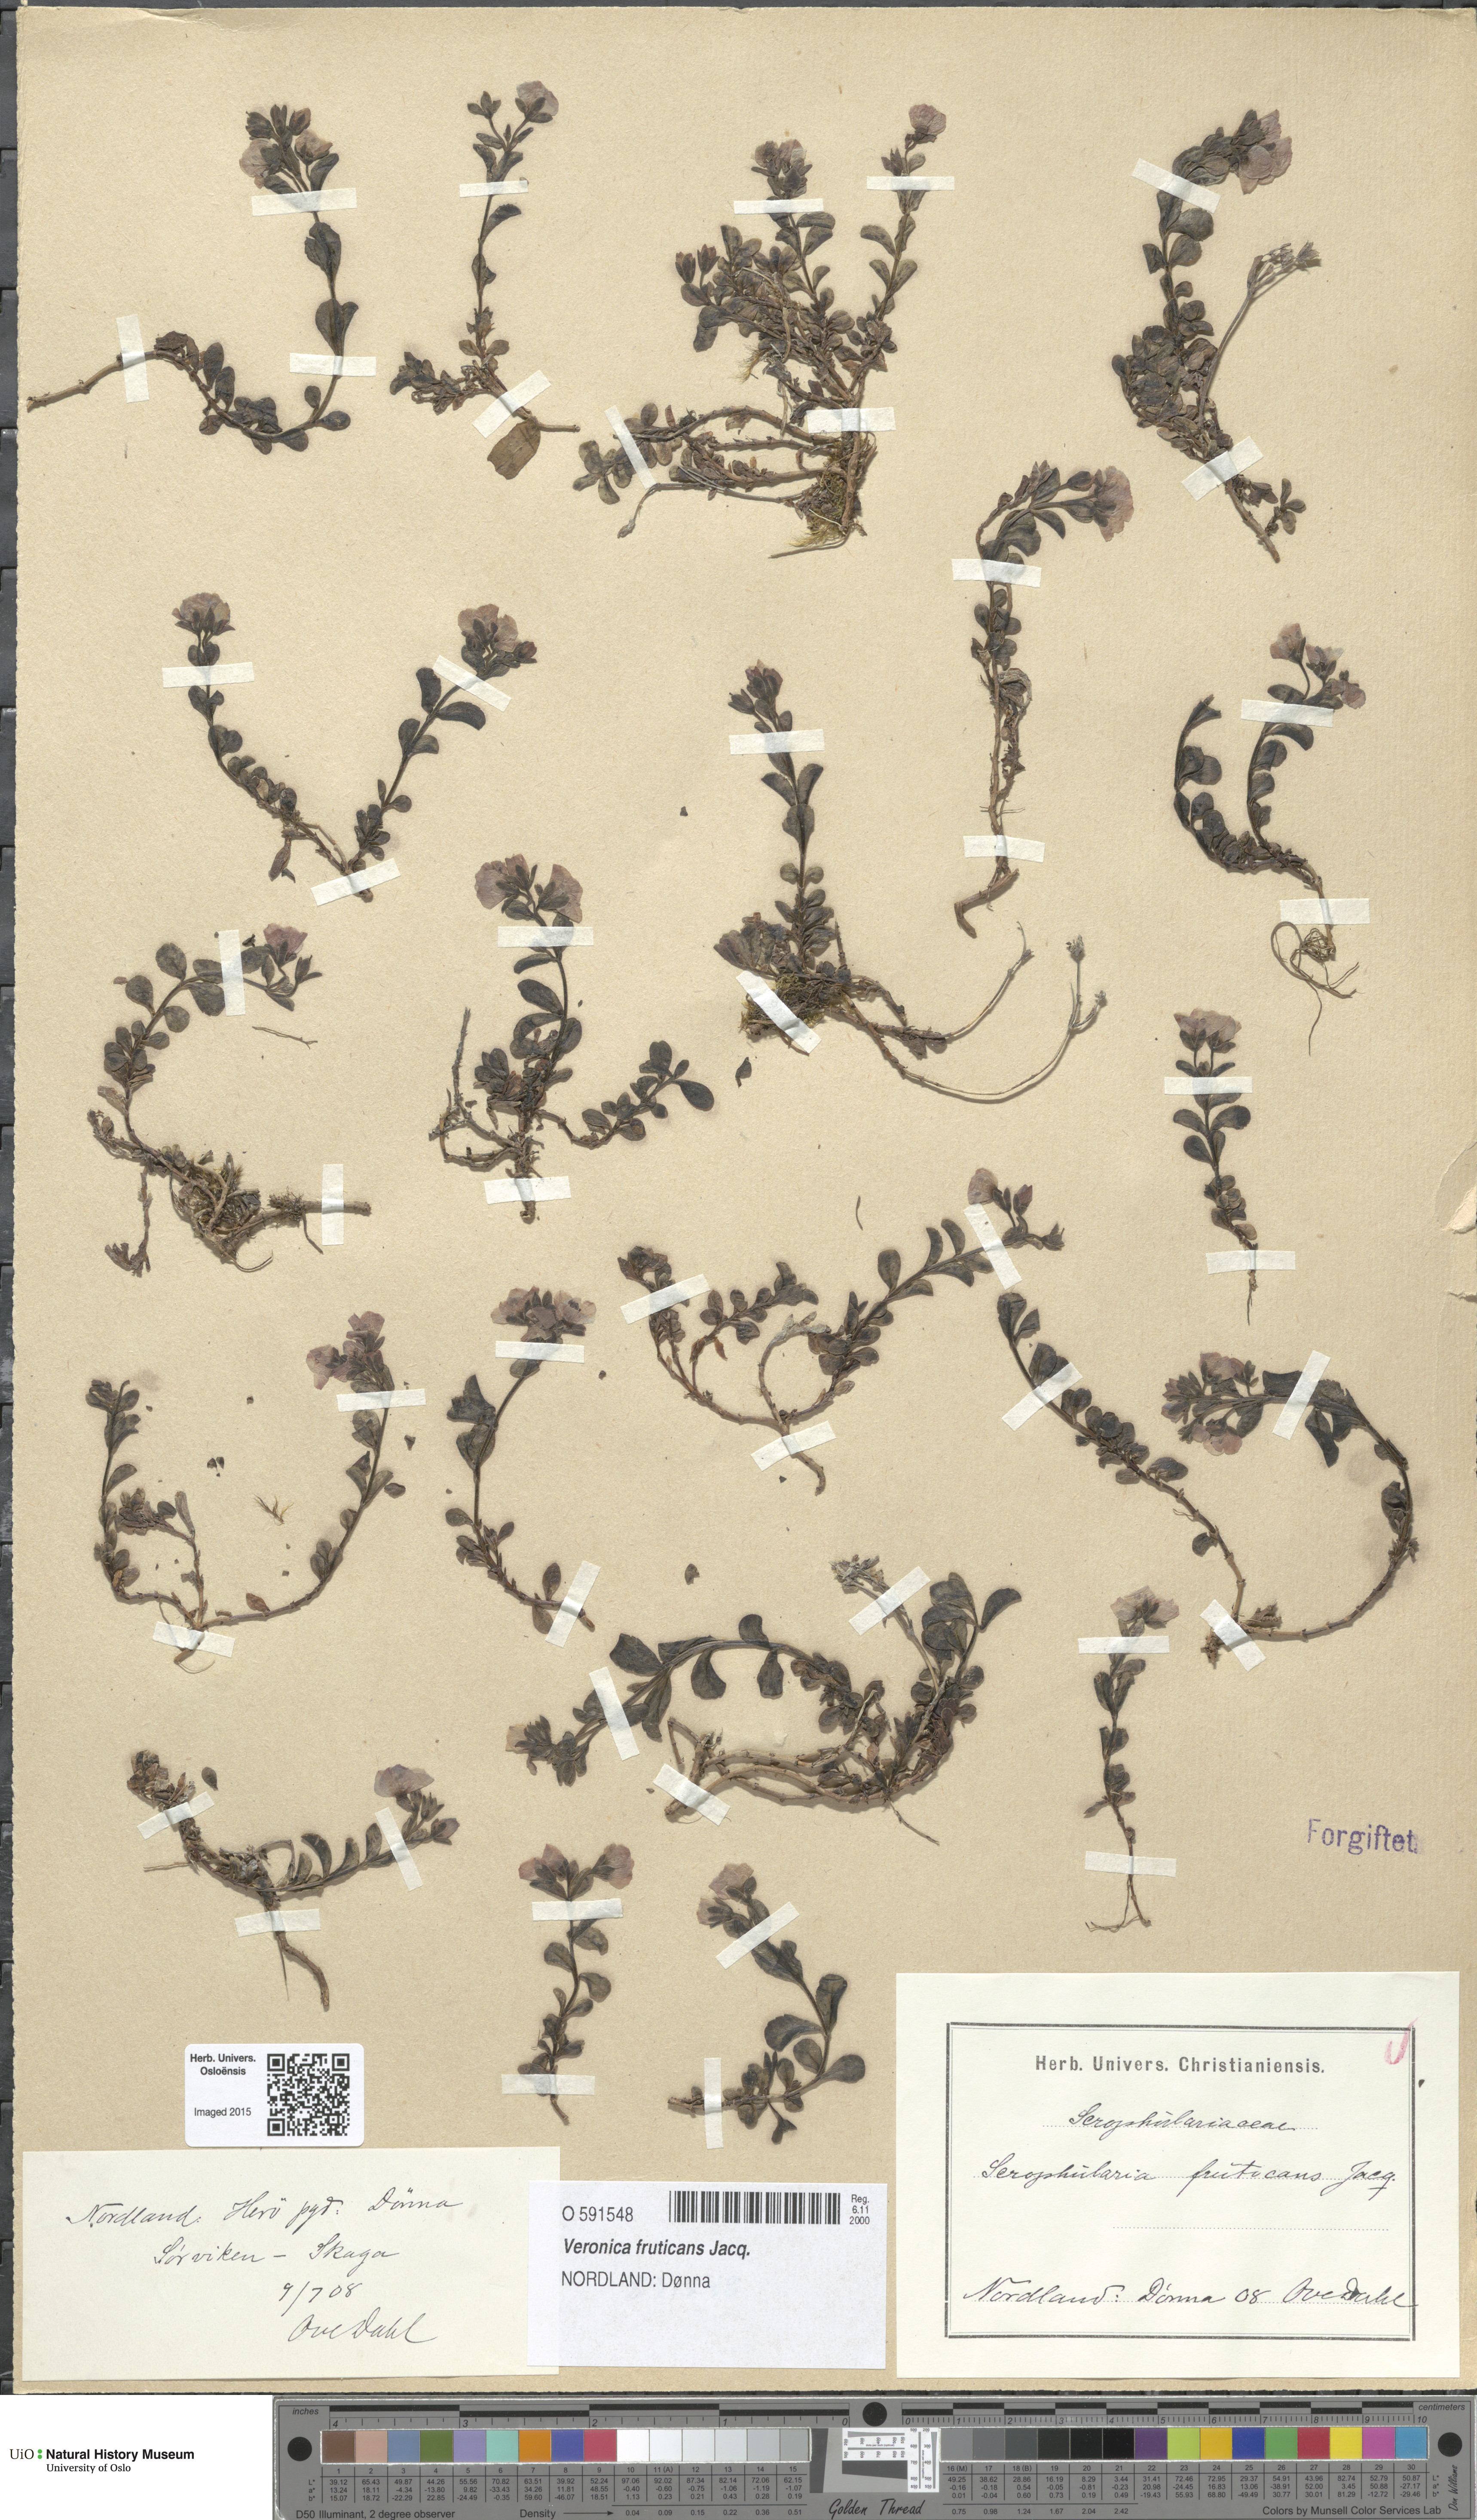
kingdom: Plantae
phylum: Tracheophyta
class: Magnoliopsida
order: Lamiales
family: Plantaginaceae
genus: Veronica
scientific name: Veronica fruticans
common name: Rock speedwell
